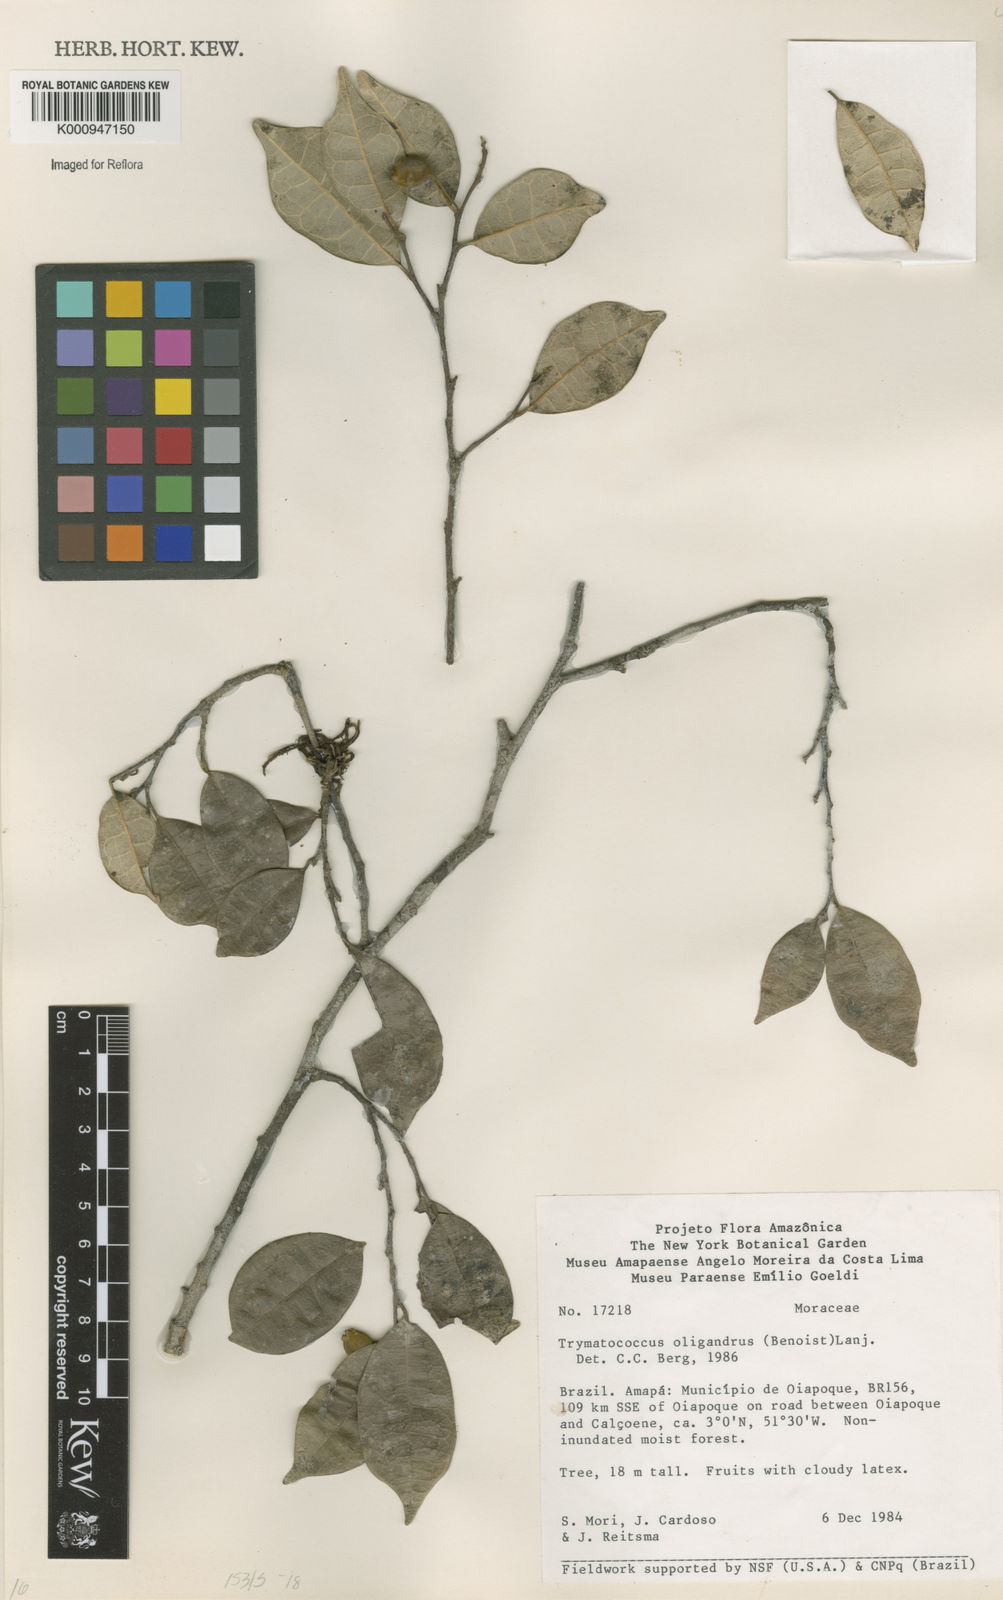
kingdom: Plantae
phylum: Tracheophyta
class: Magnoliopsida
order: Rosales
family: Moraceae
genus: Brosimum
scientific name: Brosimum oligandrum
